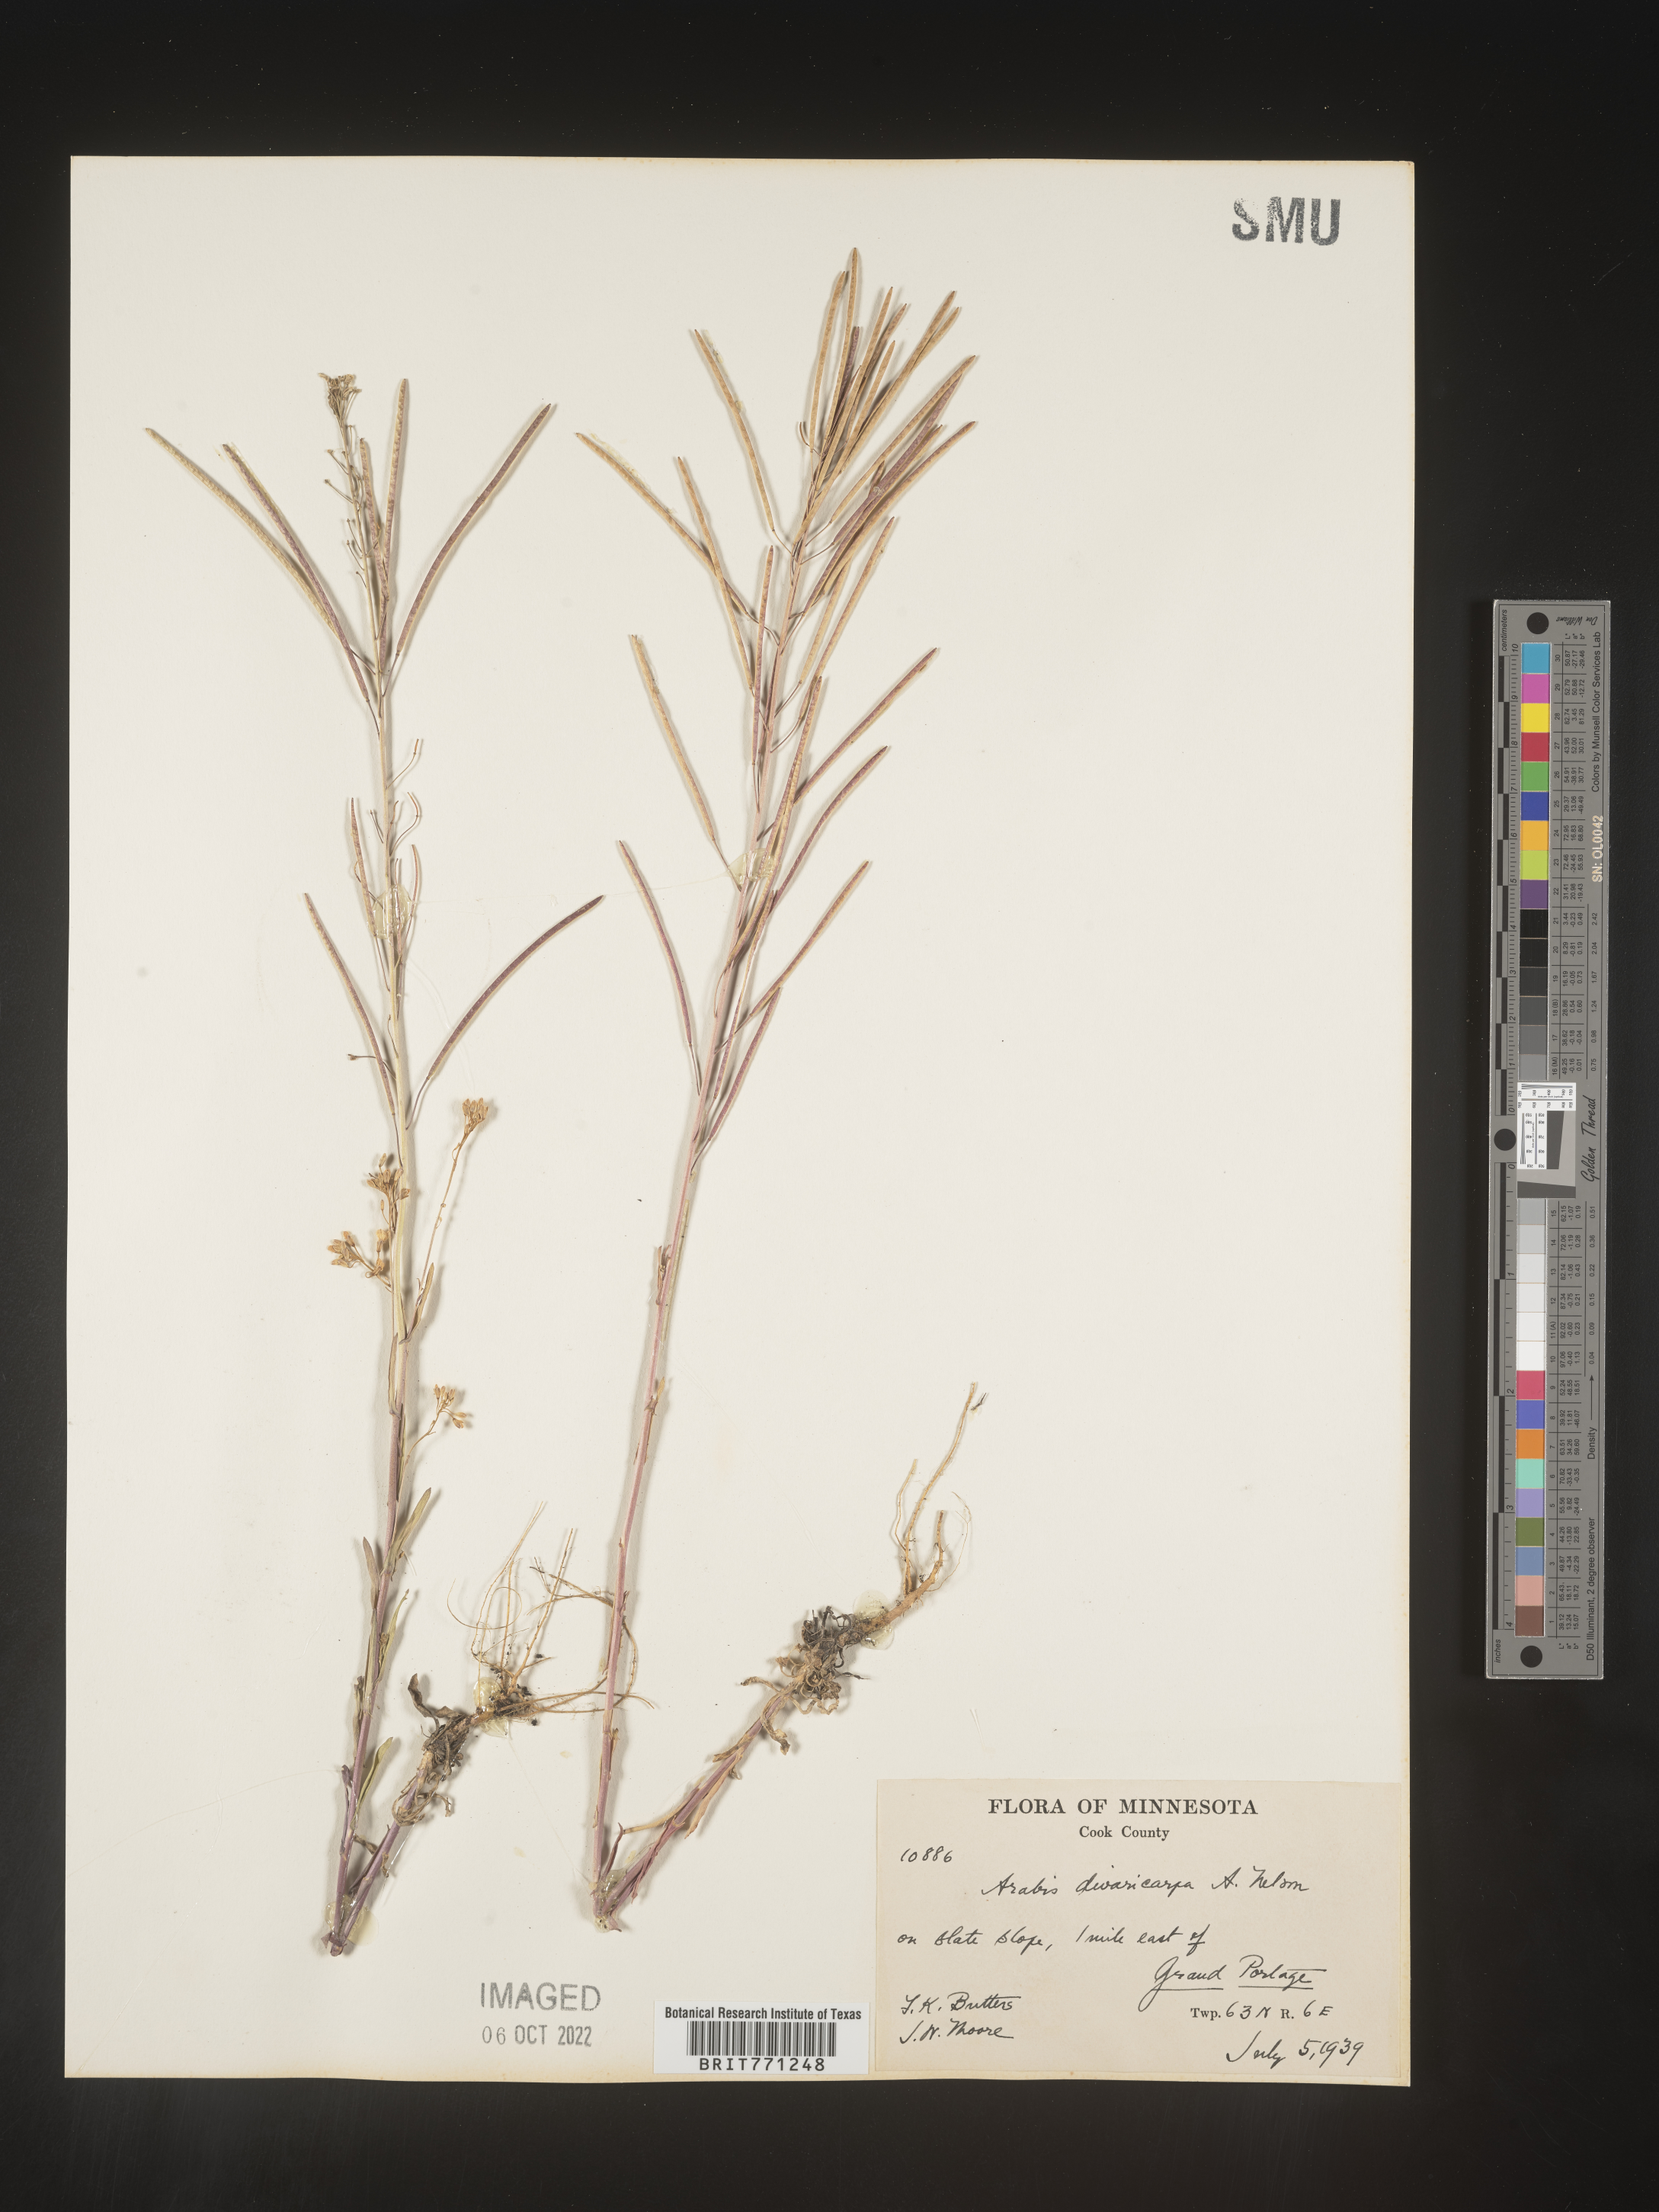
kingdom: Plantae
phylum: Tracheophyta
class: Magnoliopsida
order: Brassicales
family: Brassicaceae
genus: Boechera
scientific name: Boechera divaricarpa
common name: Divaricate rockcress
